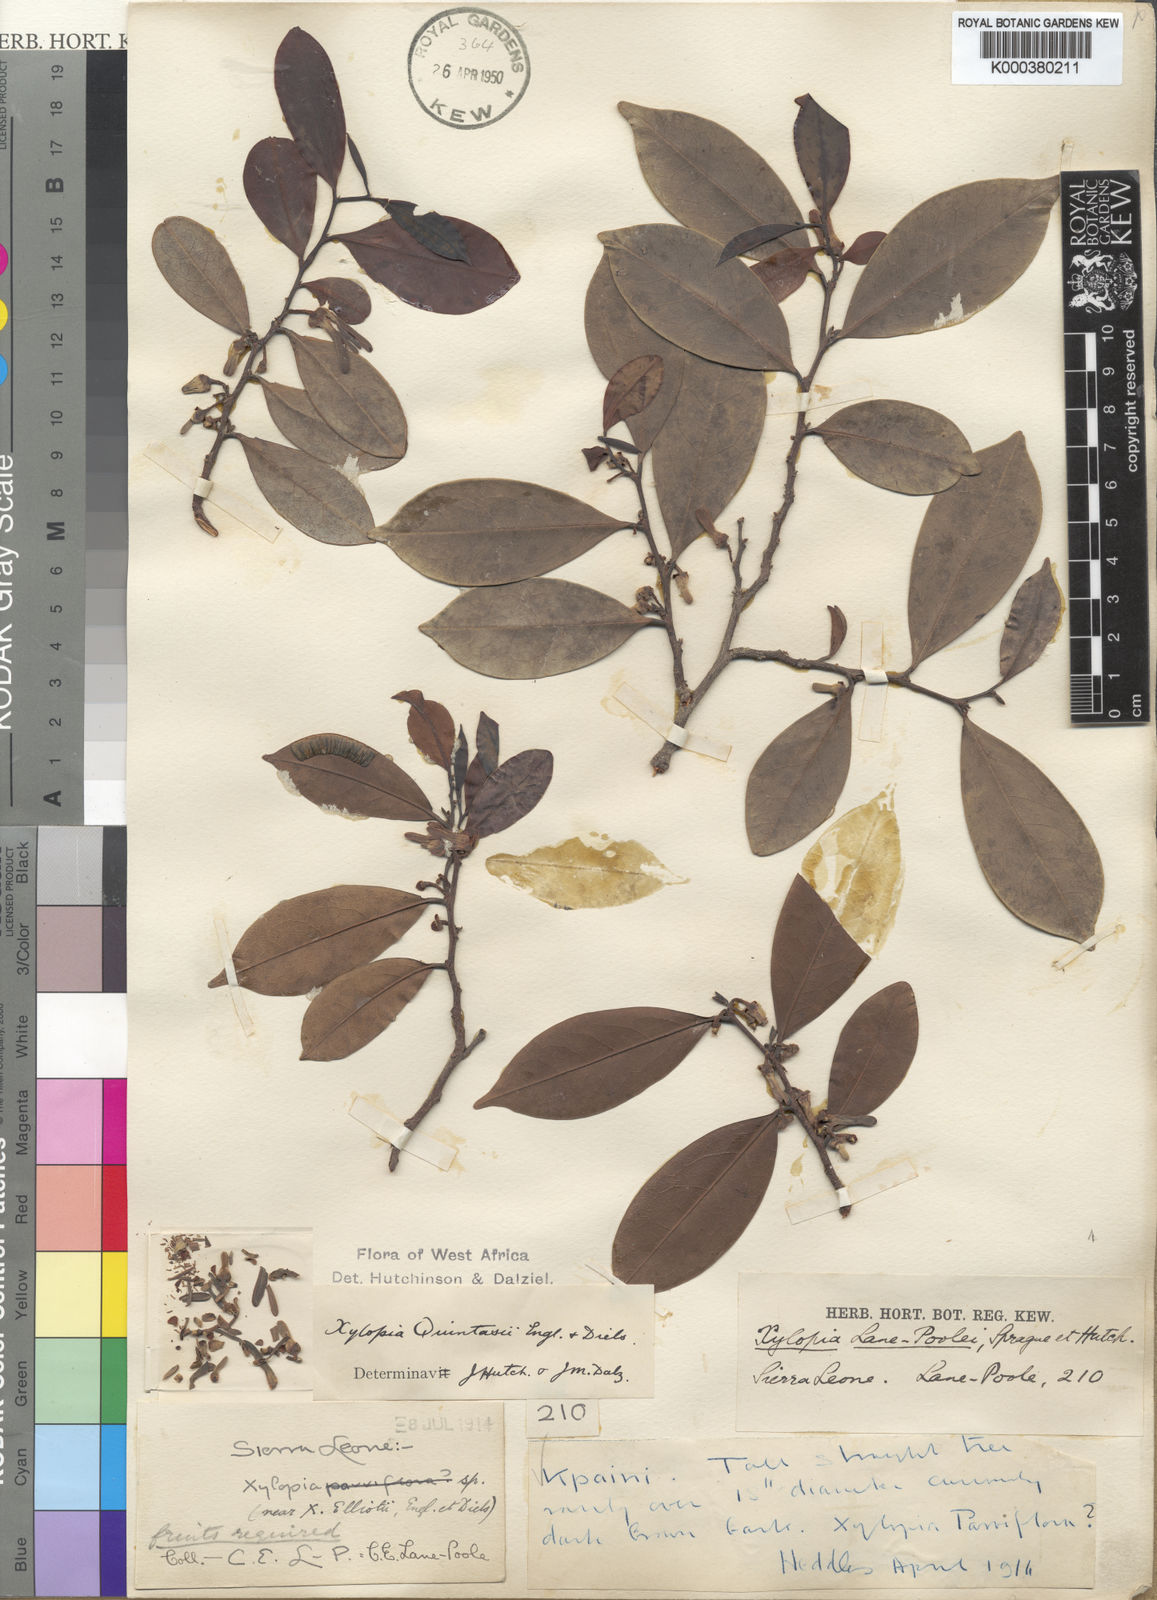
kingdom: Plantae
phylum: Tracheophyta
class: Magnoliopsida
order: Magnoliales
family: Annonaceae
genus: Xylopia
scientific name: Xylopia quintasii
